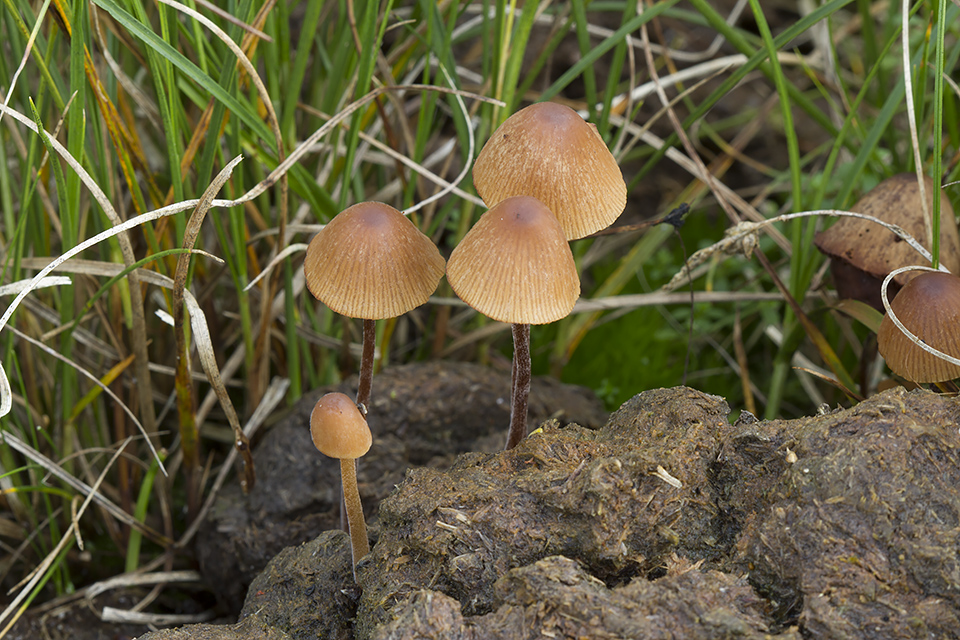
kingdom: Fungi
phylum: Basidiomycota
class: Agaricomycetes
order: Agaricales
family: Bolbitiaceae
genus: Conocybe
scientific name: Conocybe brunneidisca
